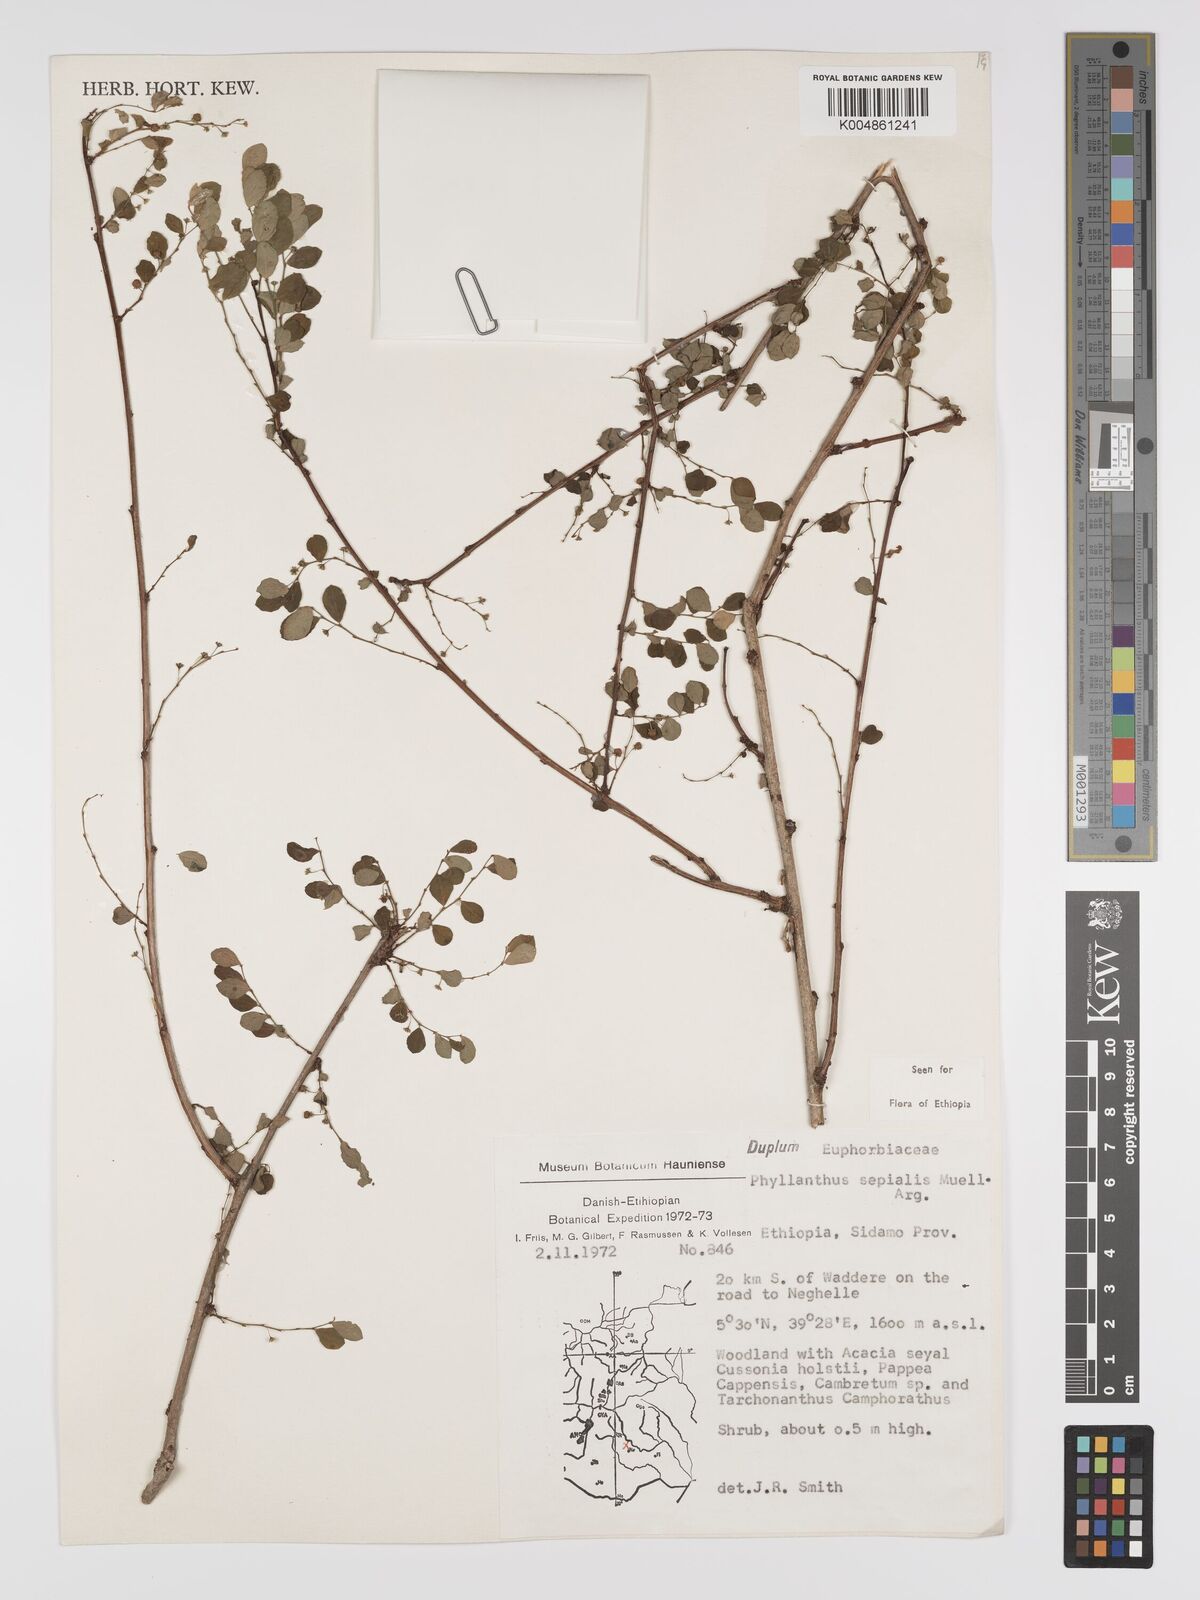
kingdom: Plantae
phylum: Tracheophyta
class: Magnoliopsida
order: Malpighiales
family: Phyllanthaceae
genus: Phyllanthus
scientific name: Phyllanthus sepialis
